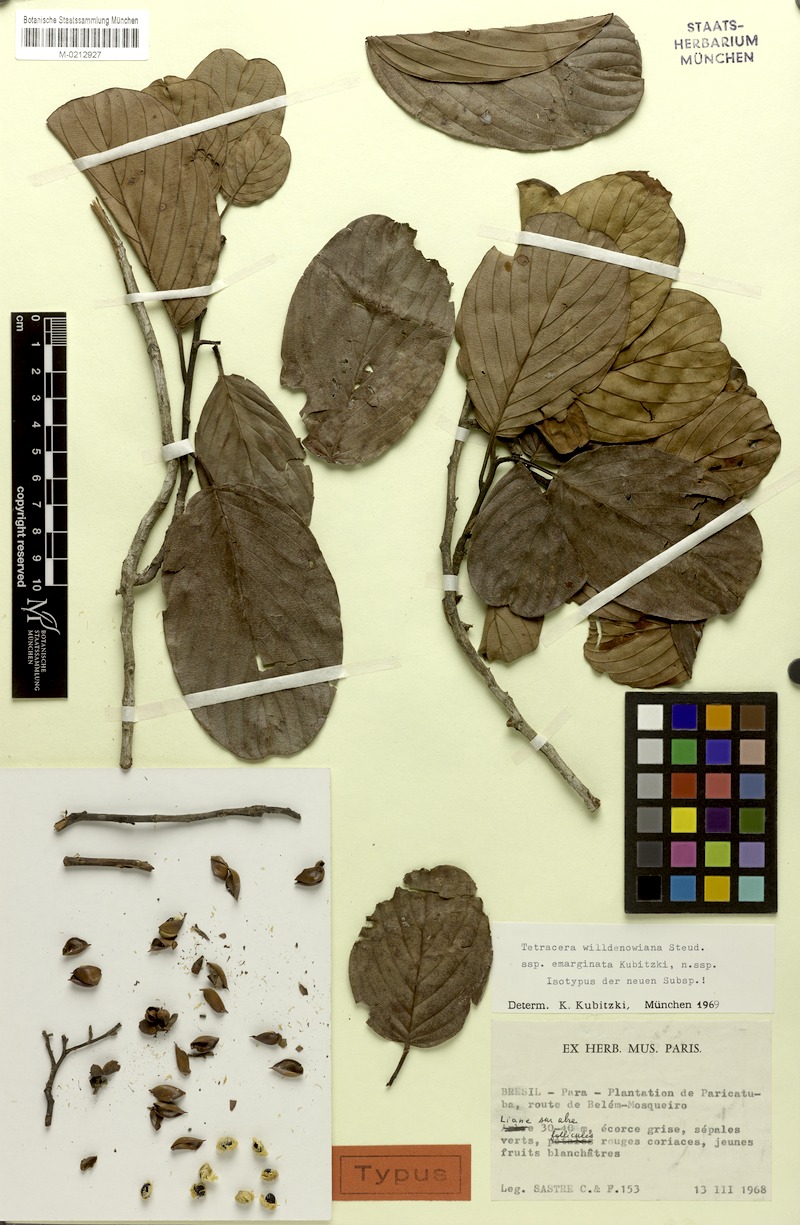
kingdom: Plantae
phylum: Tracheophyta
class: Magnoliopsida
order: Dilleniales
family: Dilleniaceae
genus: Tetracera
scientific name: Tetracera willdenowiana
